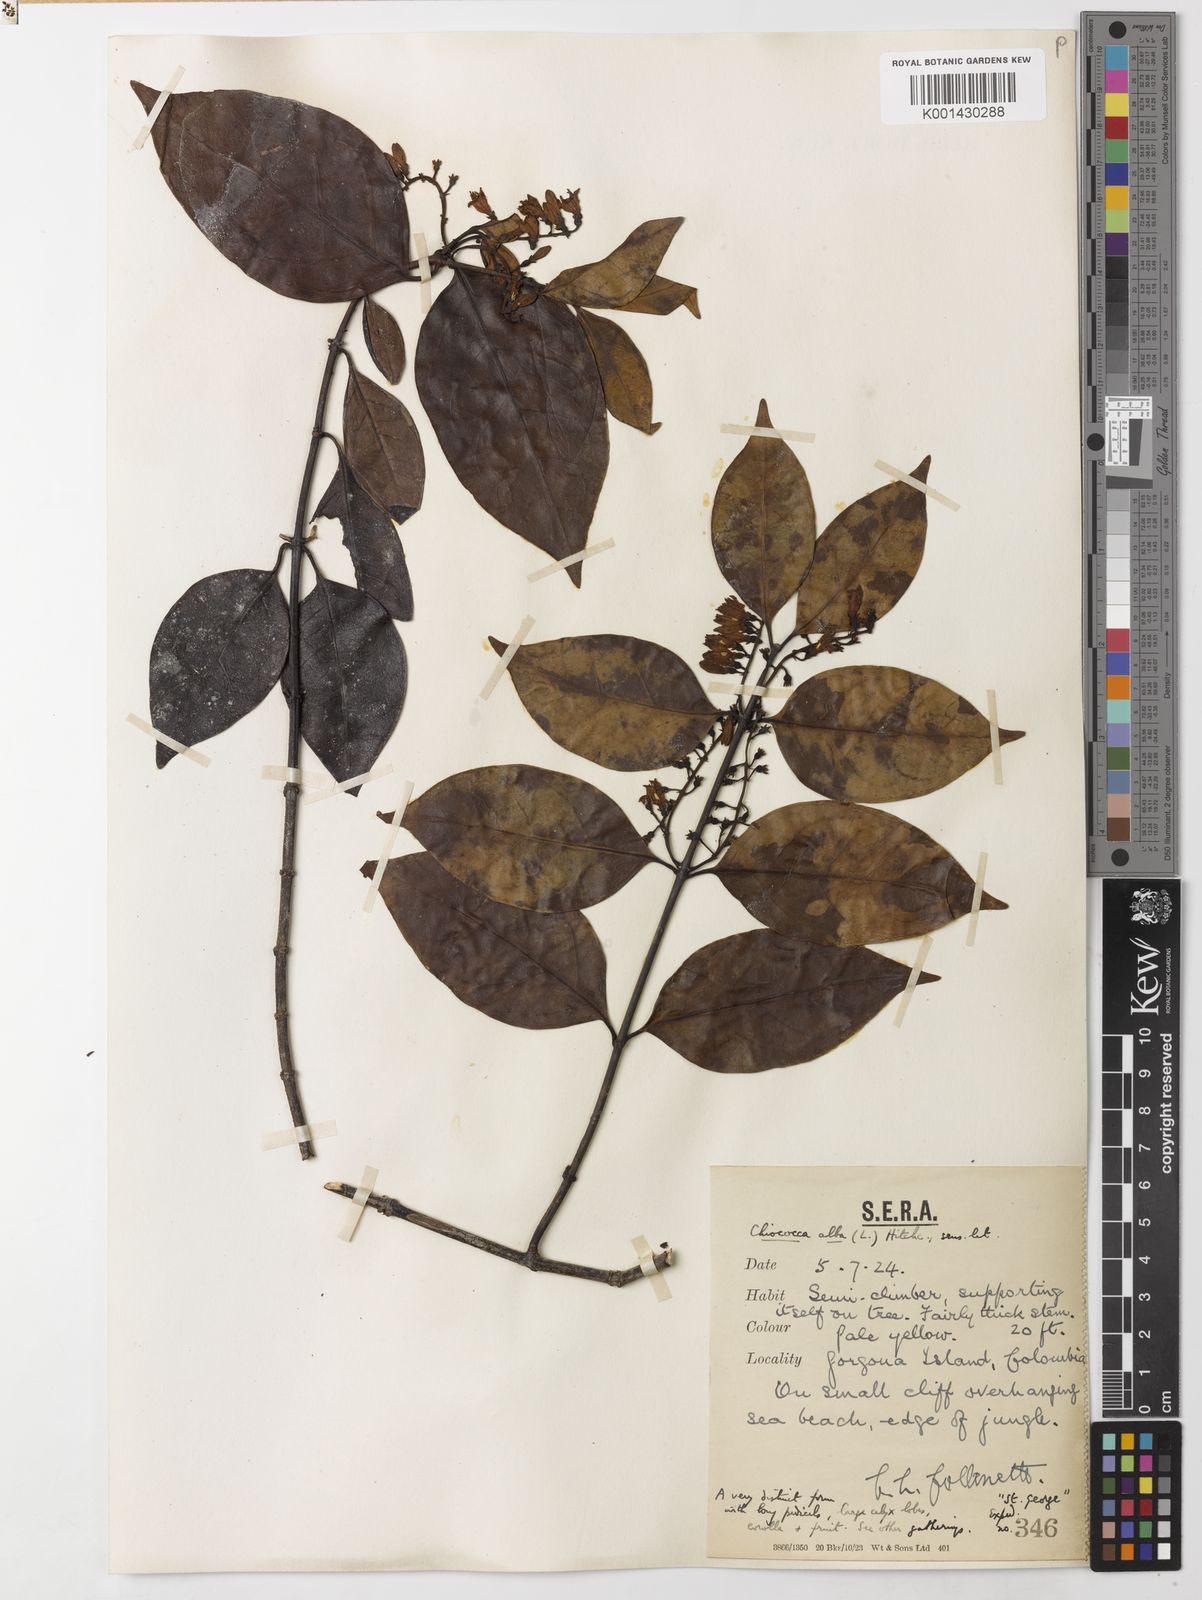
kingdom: Plantae
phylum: Tracheophyta
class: Magnoliopsida
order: Gentianales
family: Rubiaceae
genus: Chiococca
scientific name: Chiococca alba
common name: Snowberry
